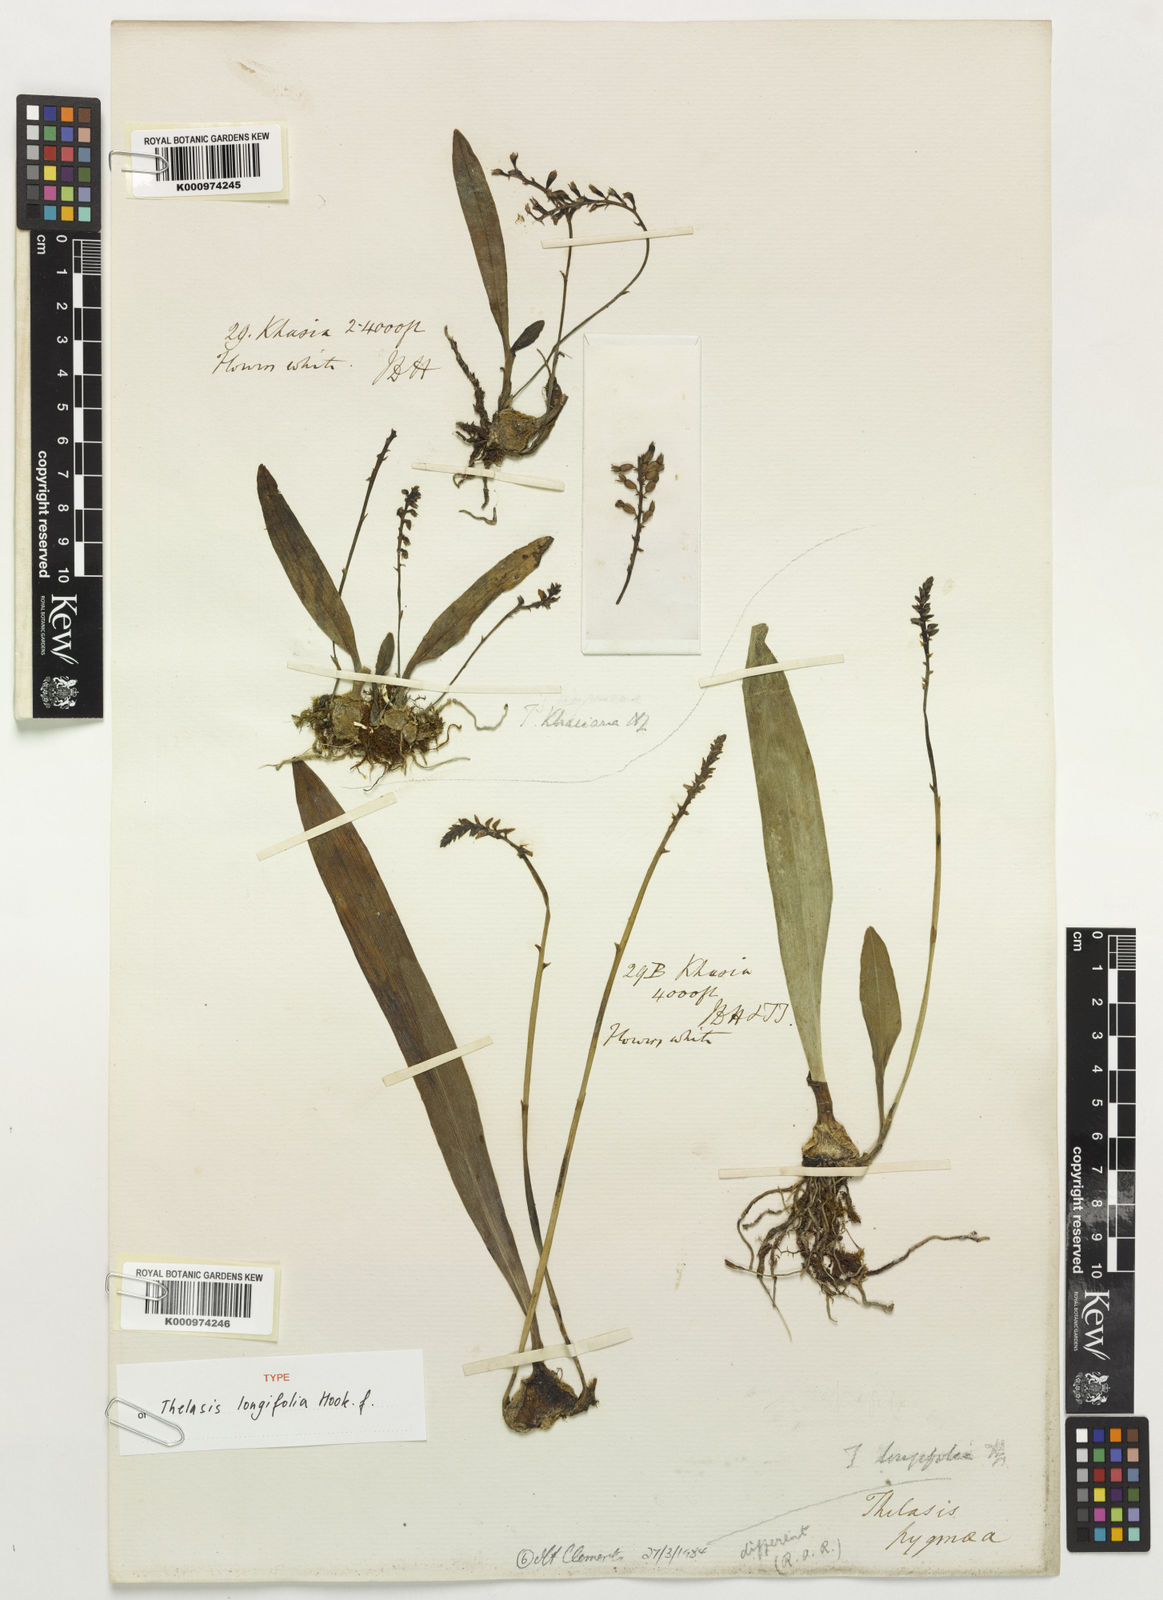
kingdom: Plantae
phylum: Tracheophyta
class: Liliopsida
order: Asparagales
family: Orchidaceae
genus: Thelasis
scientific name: Thelasis longifolia
